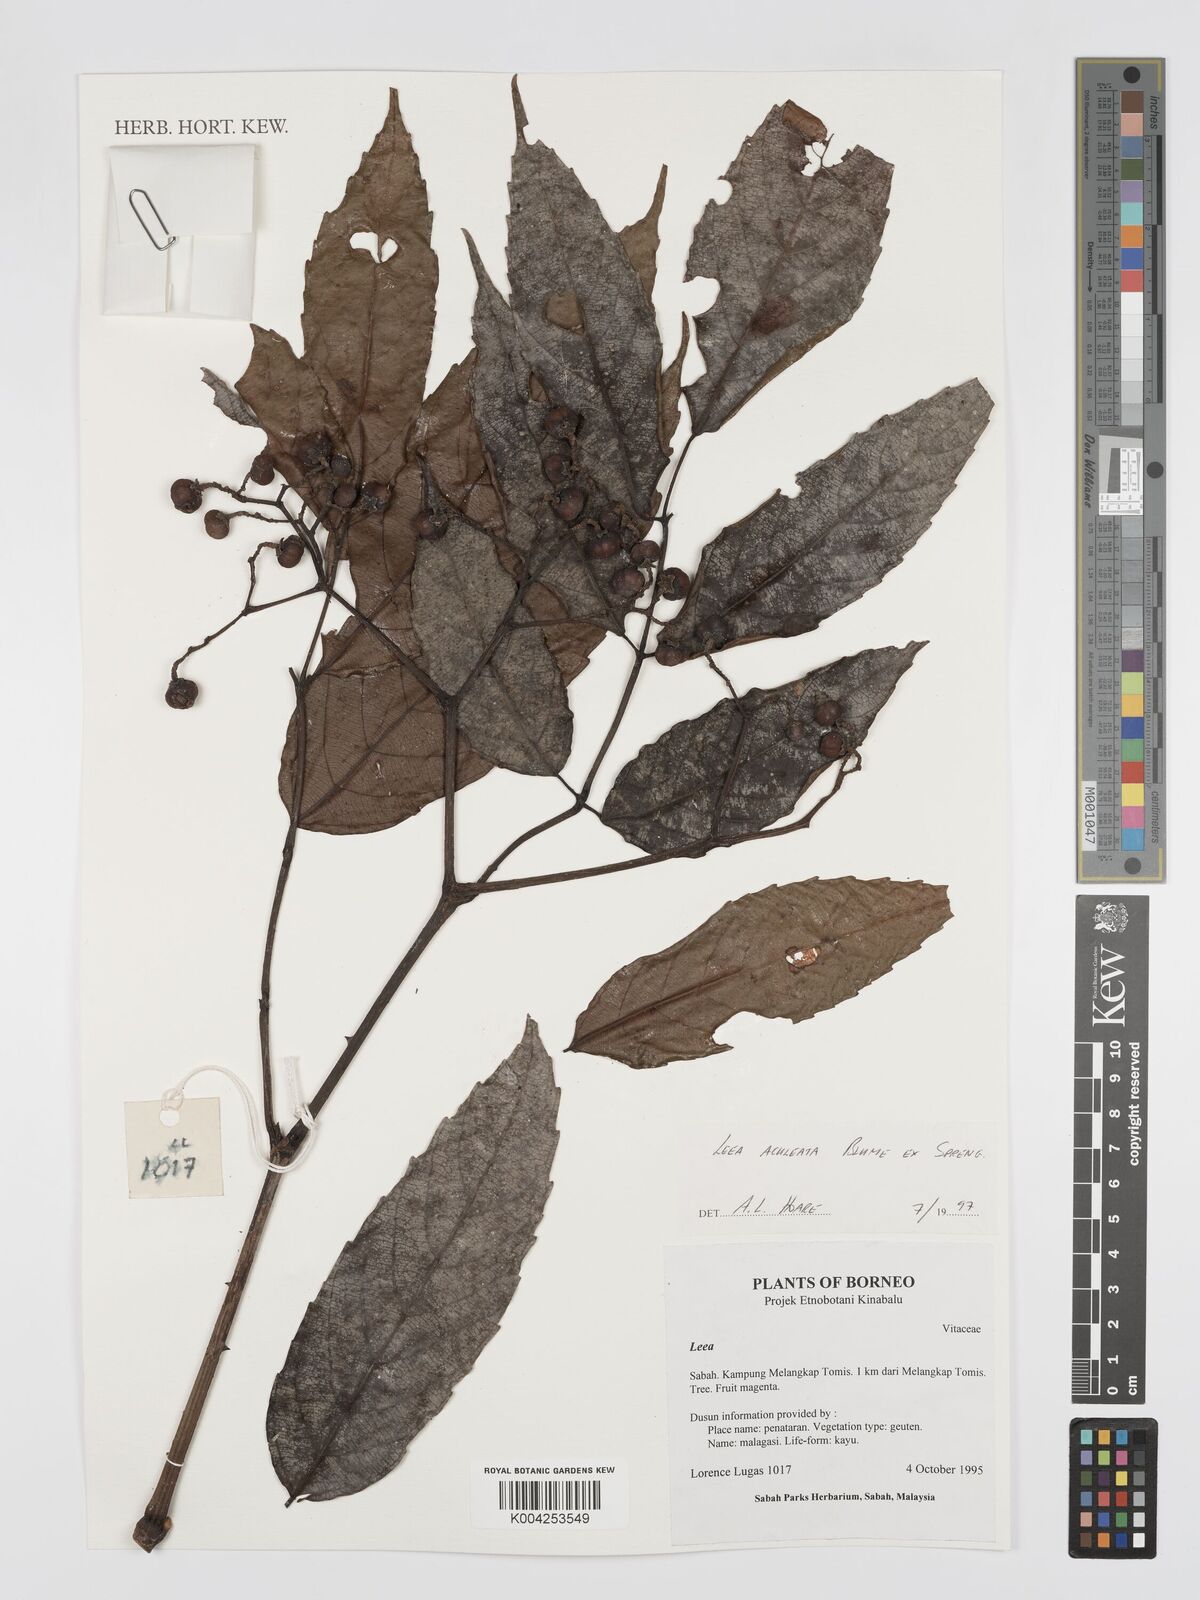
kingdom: Plantae
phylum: Tracheophyta
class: Magnoliopsida
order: Vitales
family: Vitaceae
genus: Leea
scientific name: Leea aculeata
